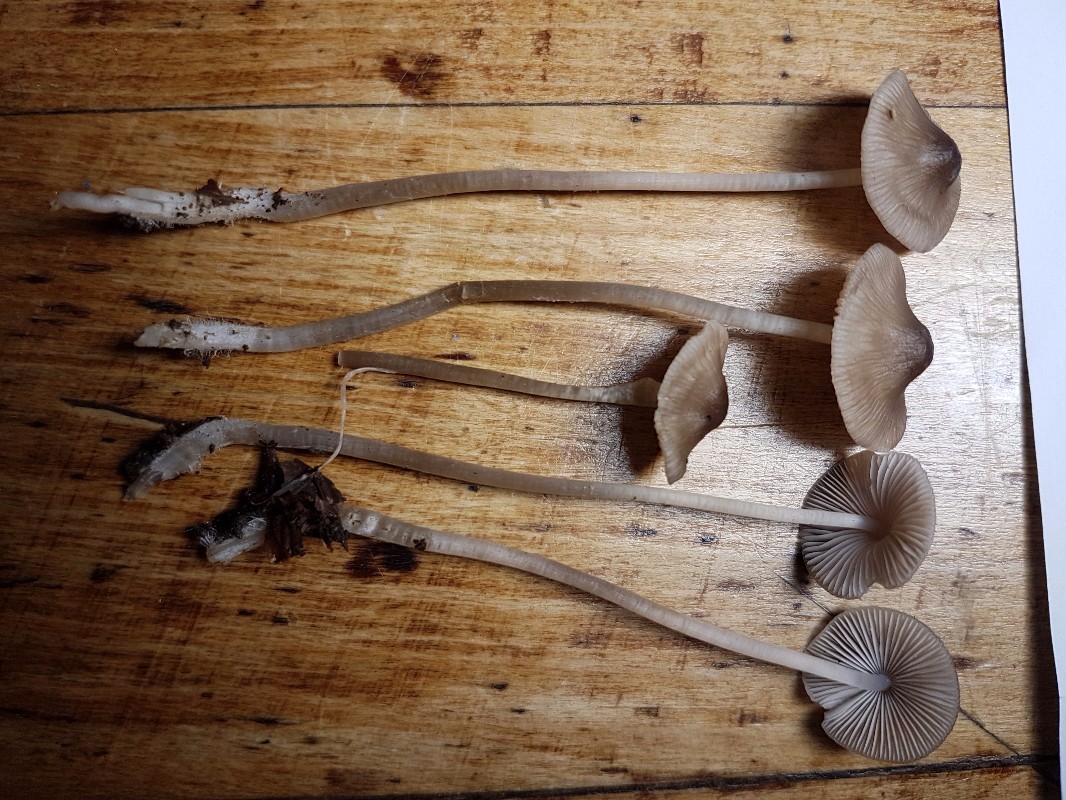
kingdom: Fungi
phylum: Basidiomycota
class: Agaricomycetes
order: Agaricales
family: Mycenaceae
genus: Mycena
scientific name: Mycena
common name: huesvamp
